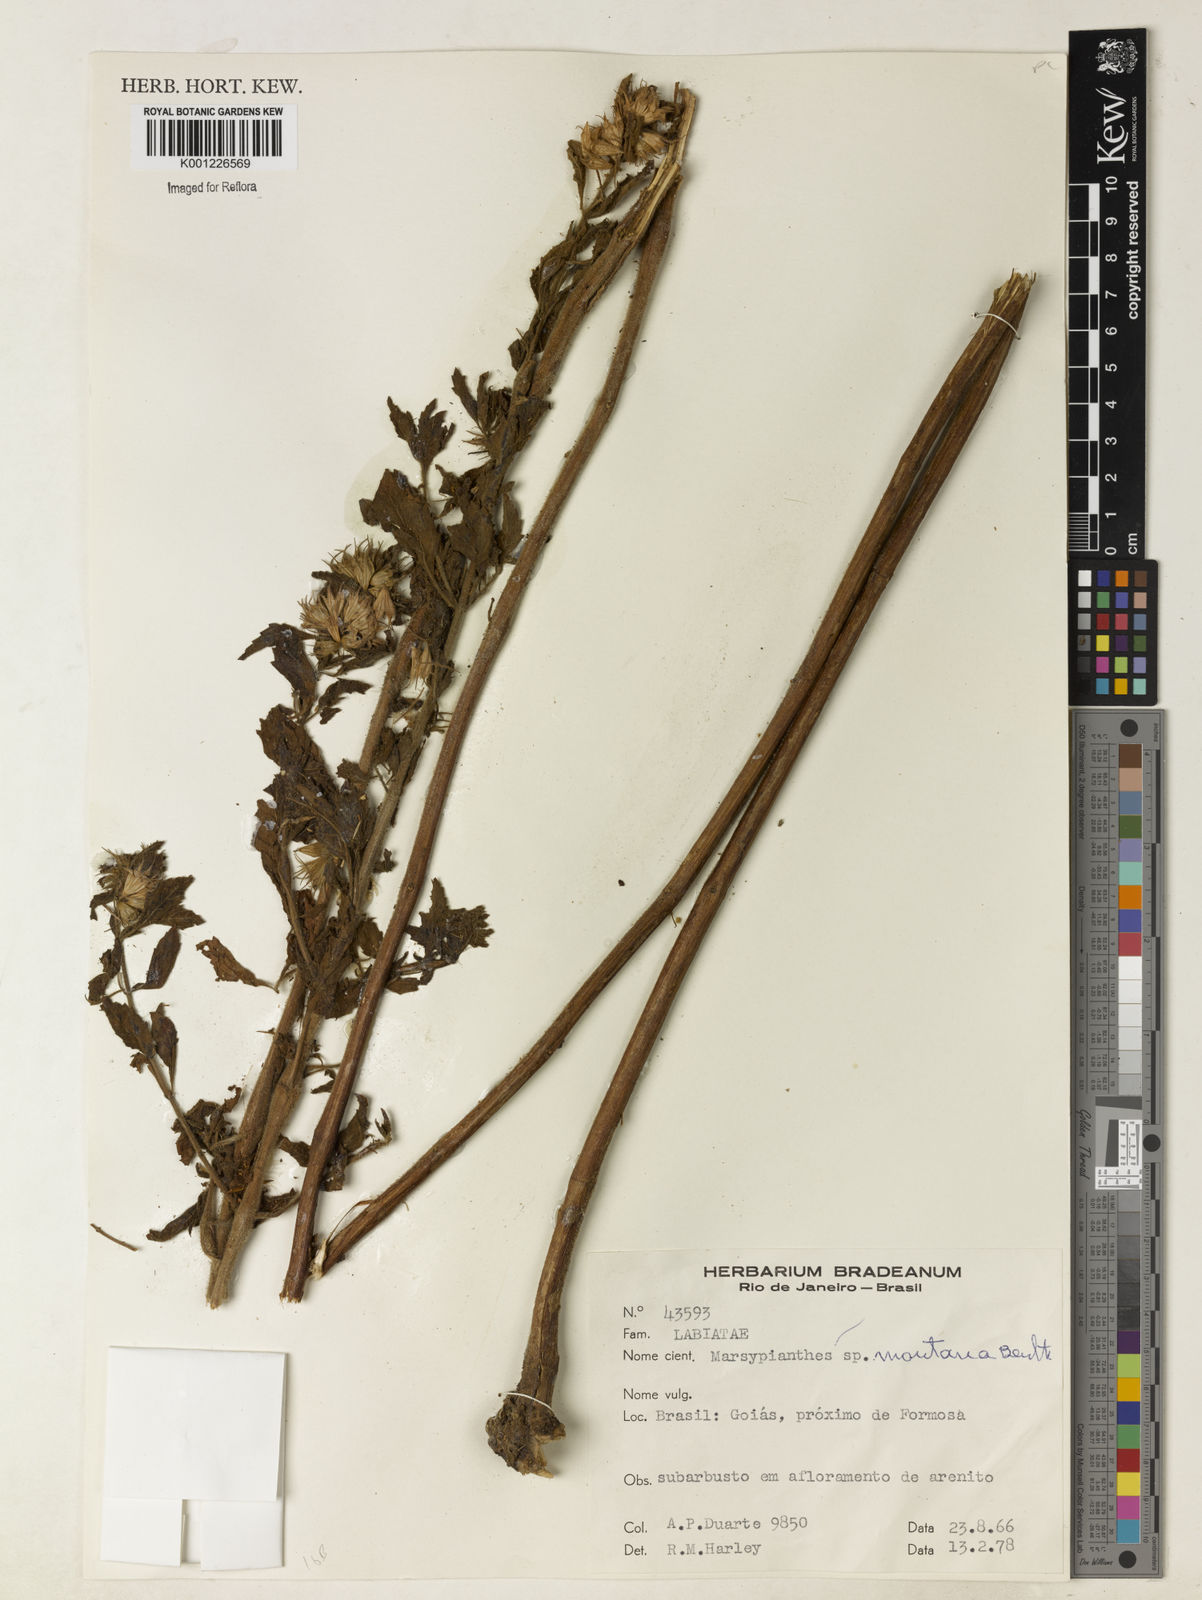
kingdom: Plantae
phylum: Tracheophyta
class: Magnoliopsida
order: Lamiales
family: Lamiaceae
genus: Marsypianthes
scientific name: Marsypianthes burchellii
